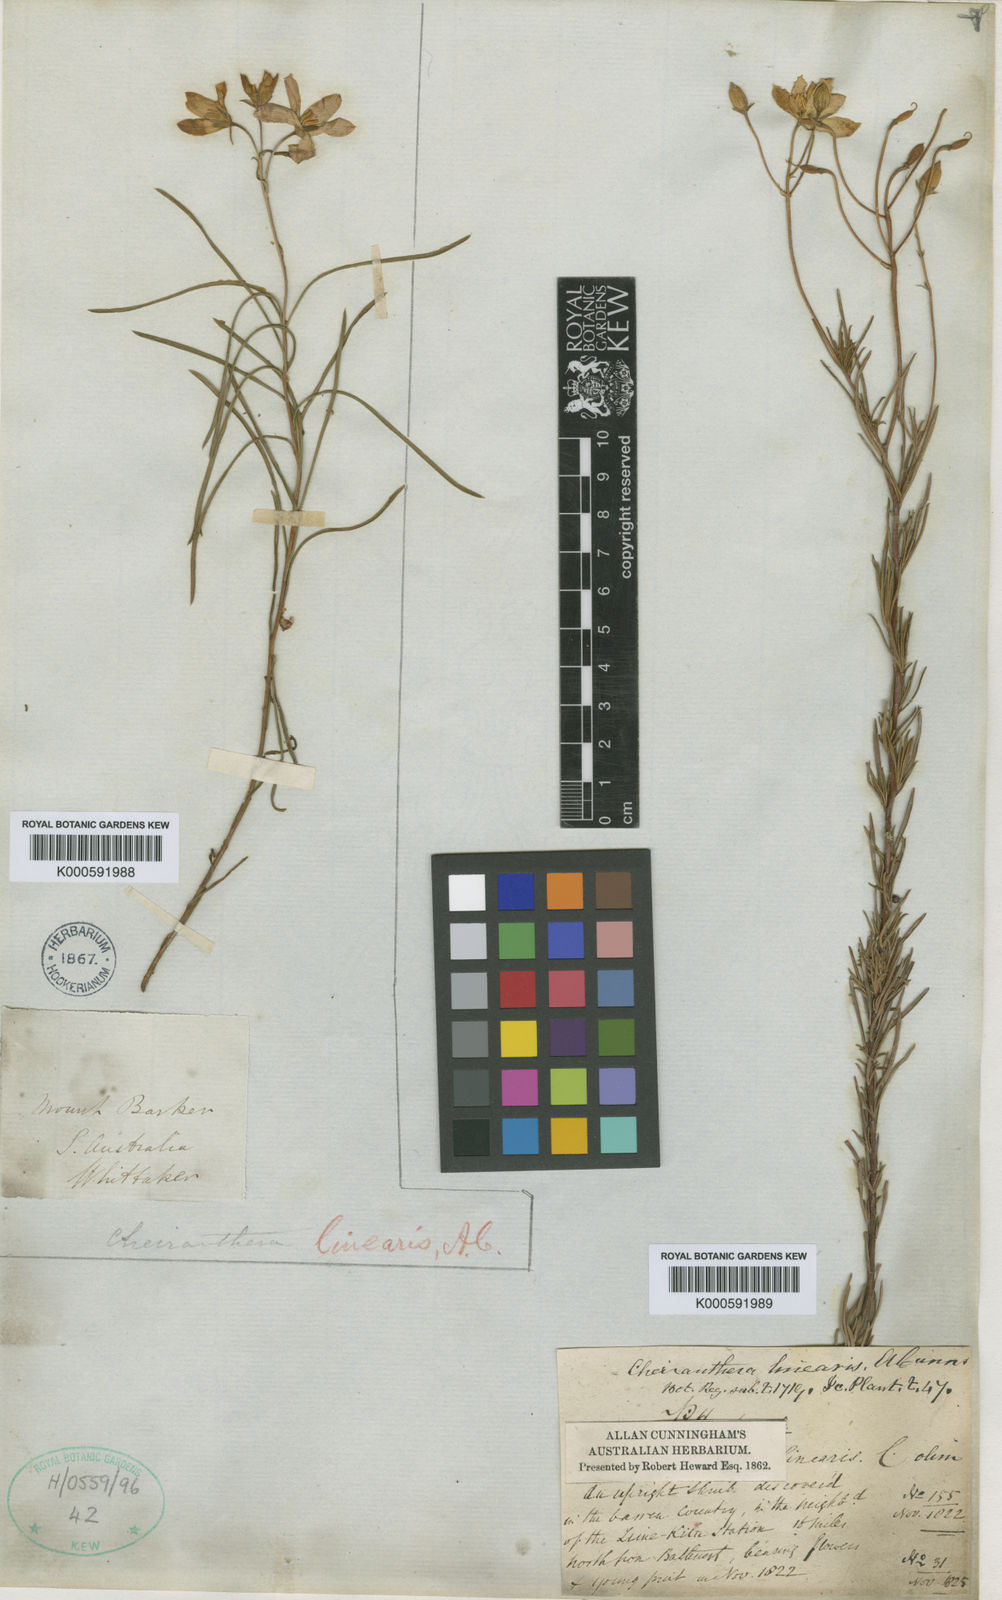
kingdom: Plantae
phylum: Tracheophyta
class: Magnoliopsida
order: Apiales
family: Pittosporaceae
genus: Cheiranthera
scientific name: Cheiranthera
